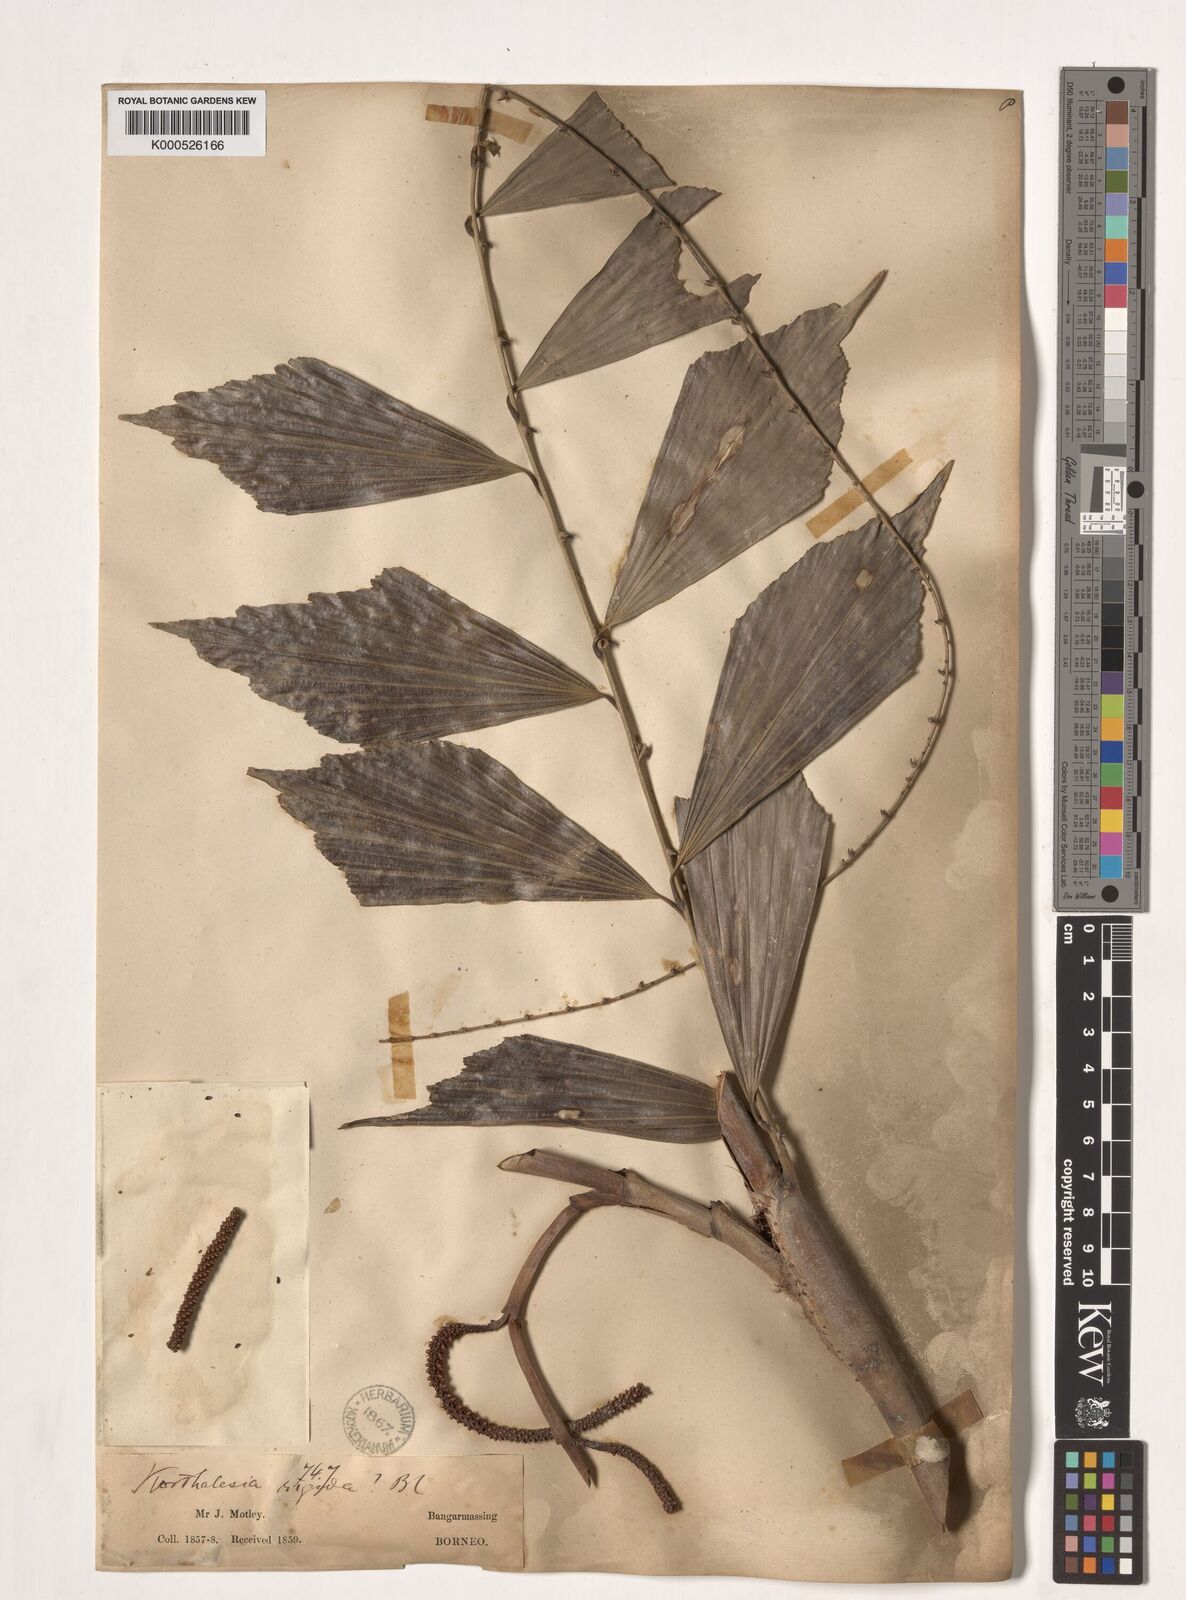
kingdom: Plantae
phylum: Tracheophyta
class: Liliopsida
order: Arecales
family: Arecaceae
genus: Korthalsia
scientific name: Korthalsia rigida
